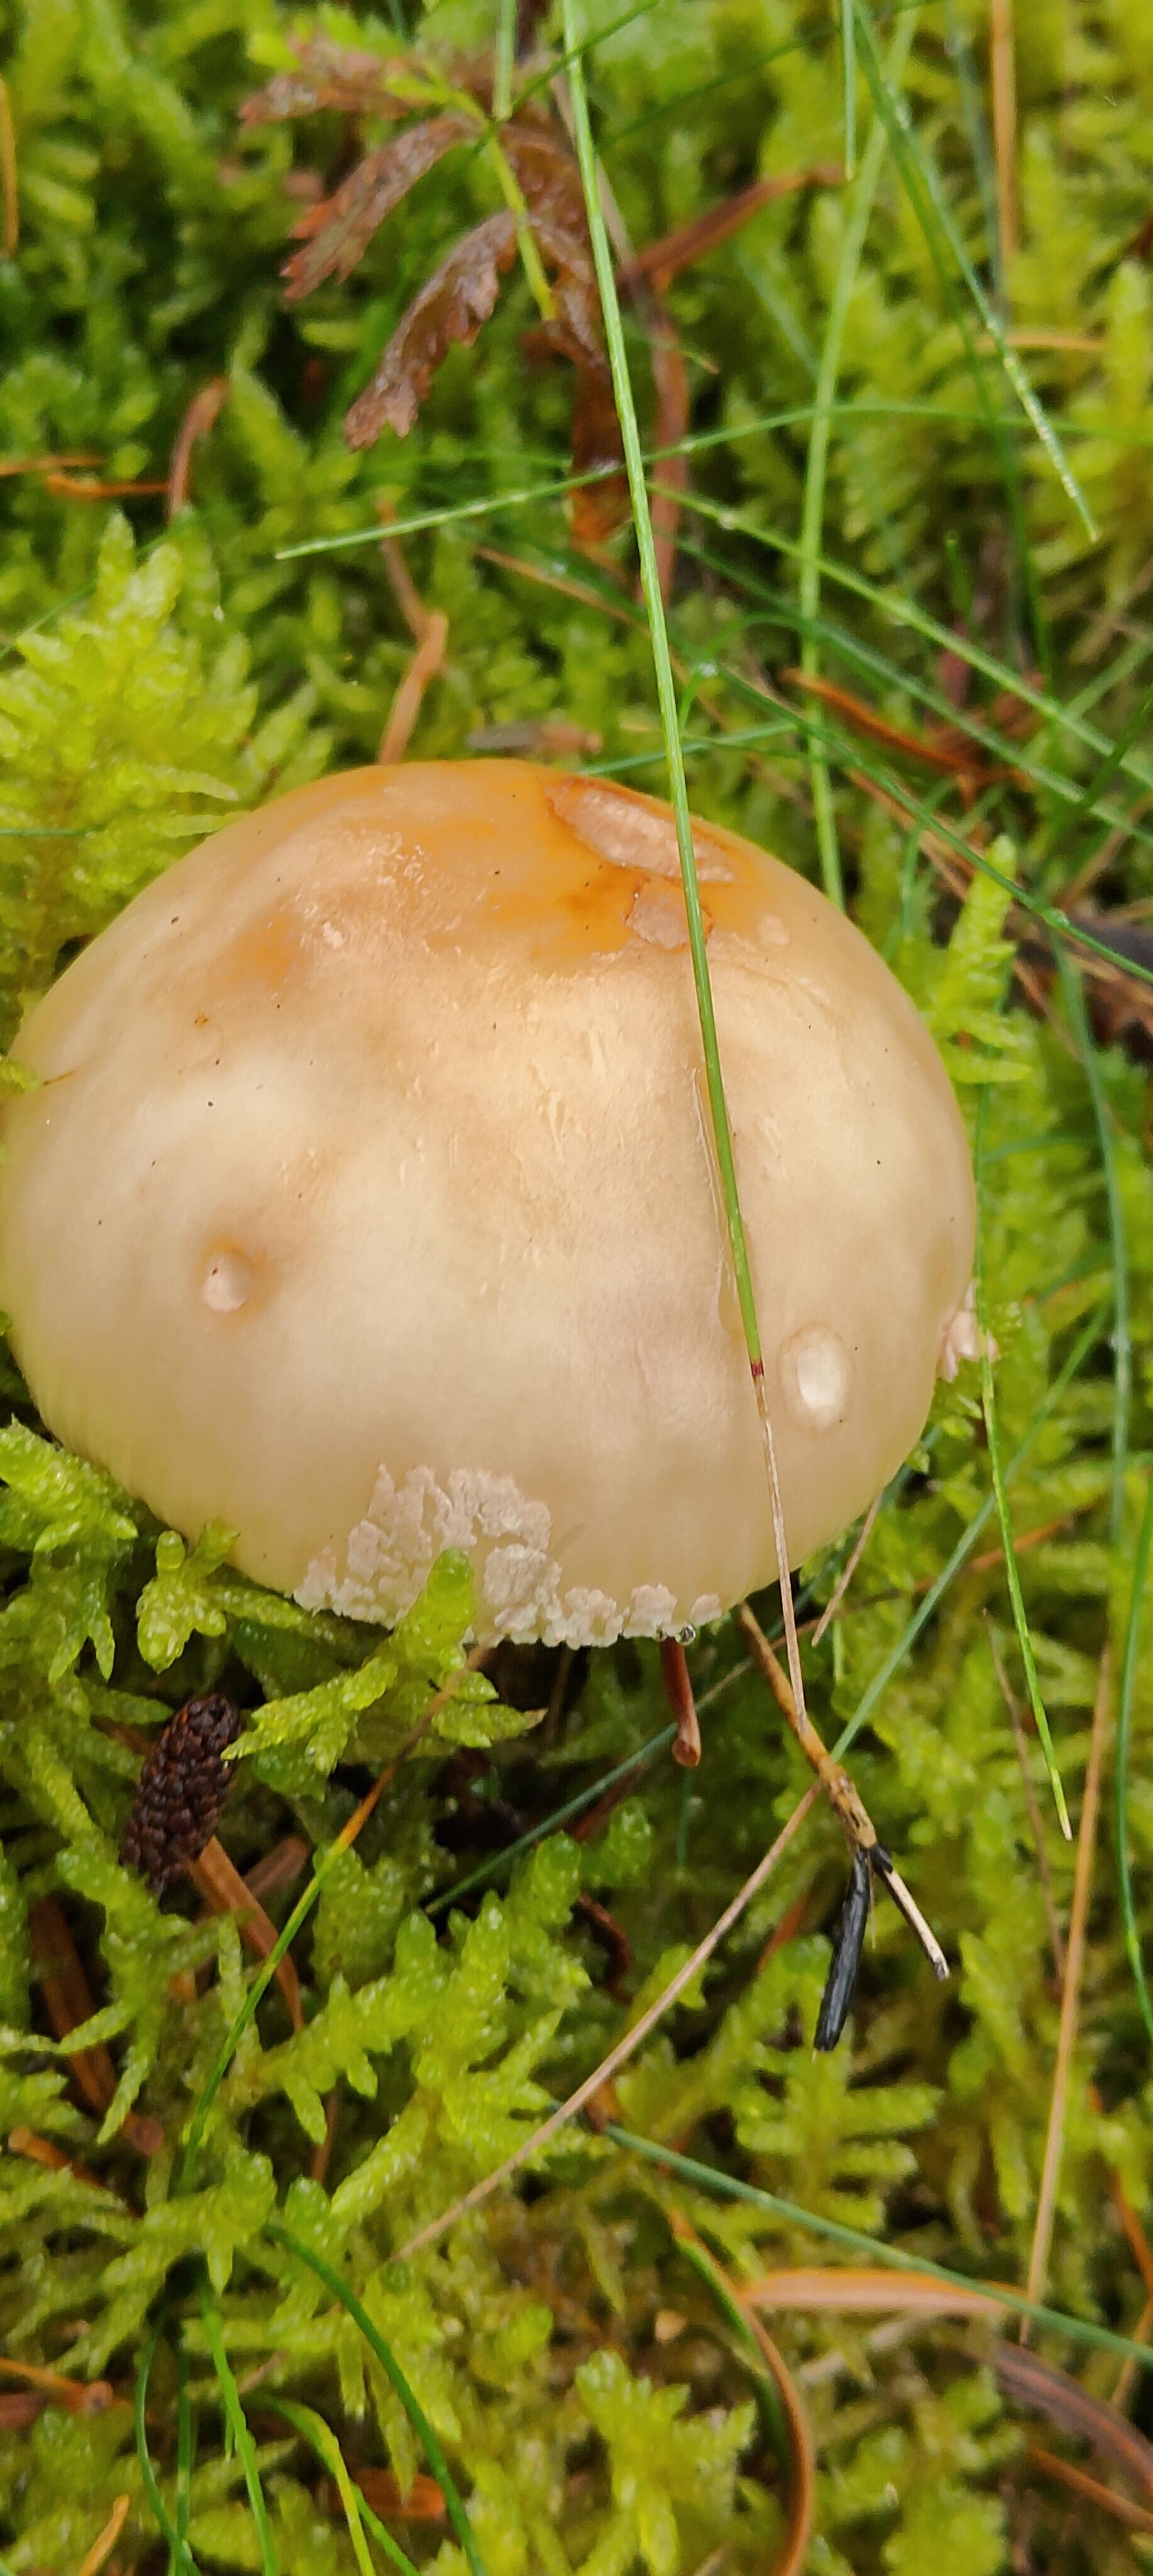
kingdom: Fungi
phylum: Basidiomycota
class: Agaricomycetes
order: Agaricales
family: Amanitaceae
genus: Amanita
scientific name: Amanita rubescens
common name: rødmende fluesvamp
